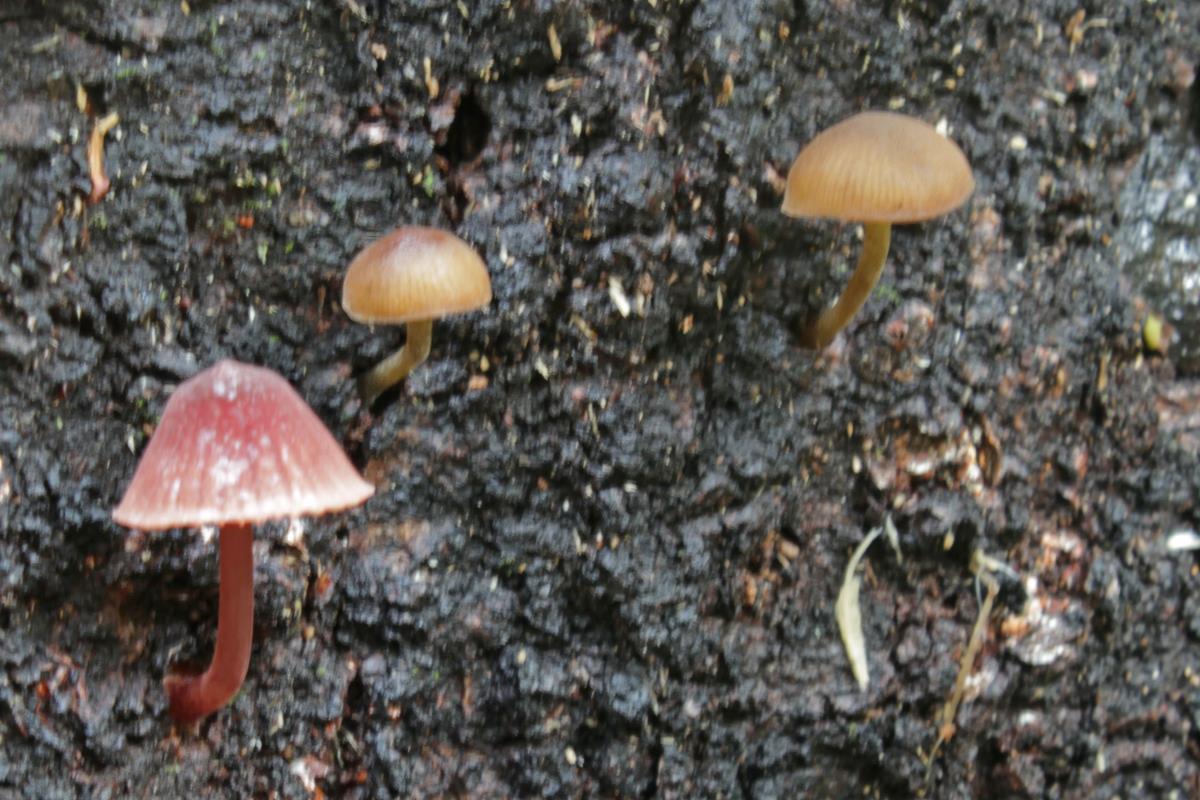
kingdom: Fungi
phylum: Basidiomycota
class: Agaricomycetes
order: Agaricales
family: Mycenaceae
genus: Mycena
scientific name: Mycena mariae
